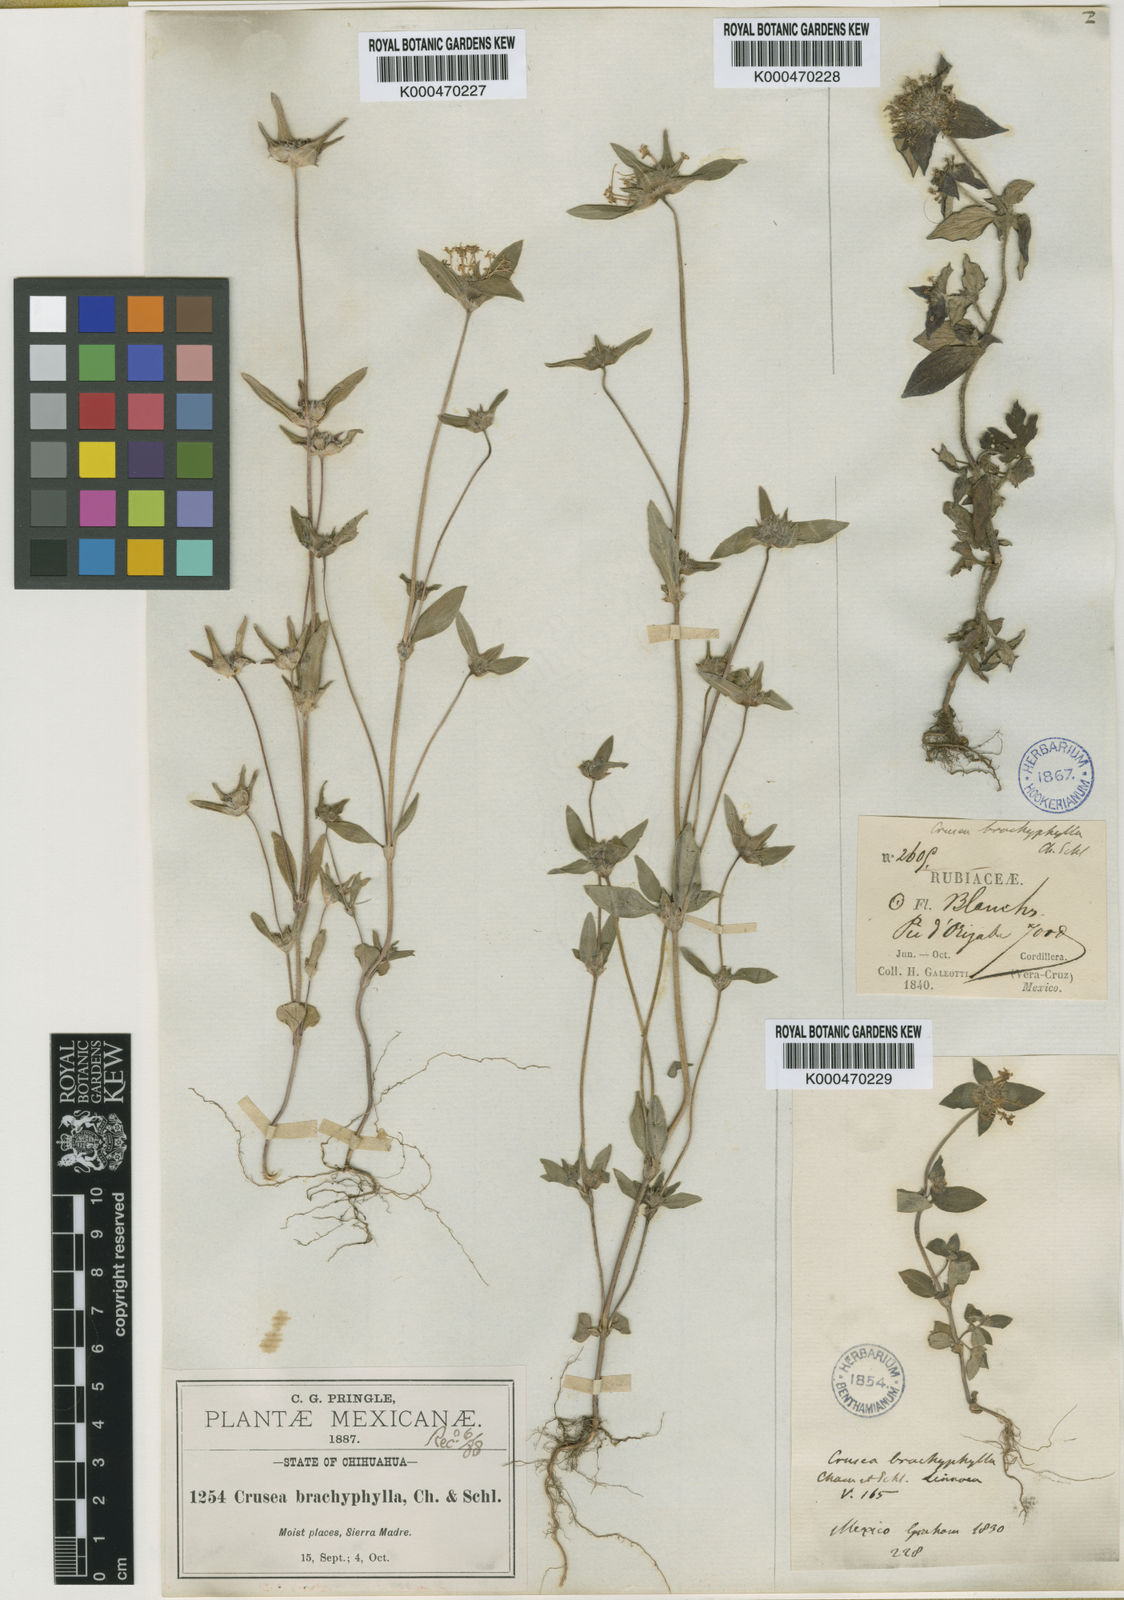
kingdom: Plantae
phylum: Tracheophyta
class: Magnoliopsida
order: Gentianales
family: Rubiaceae
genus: Crusea
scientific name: Crusea longiflora
